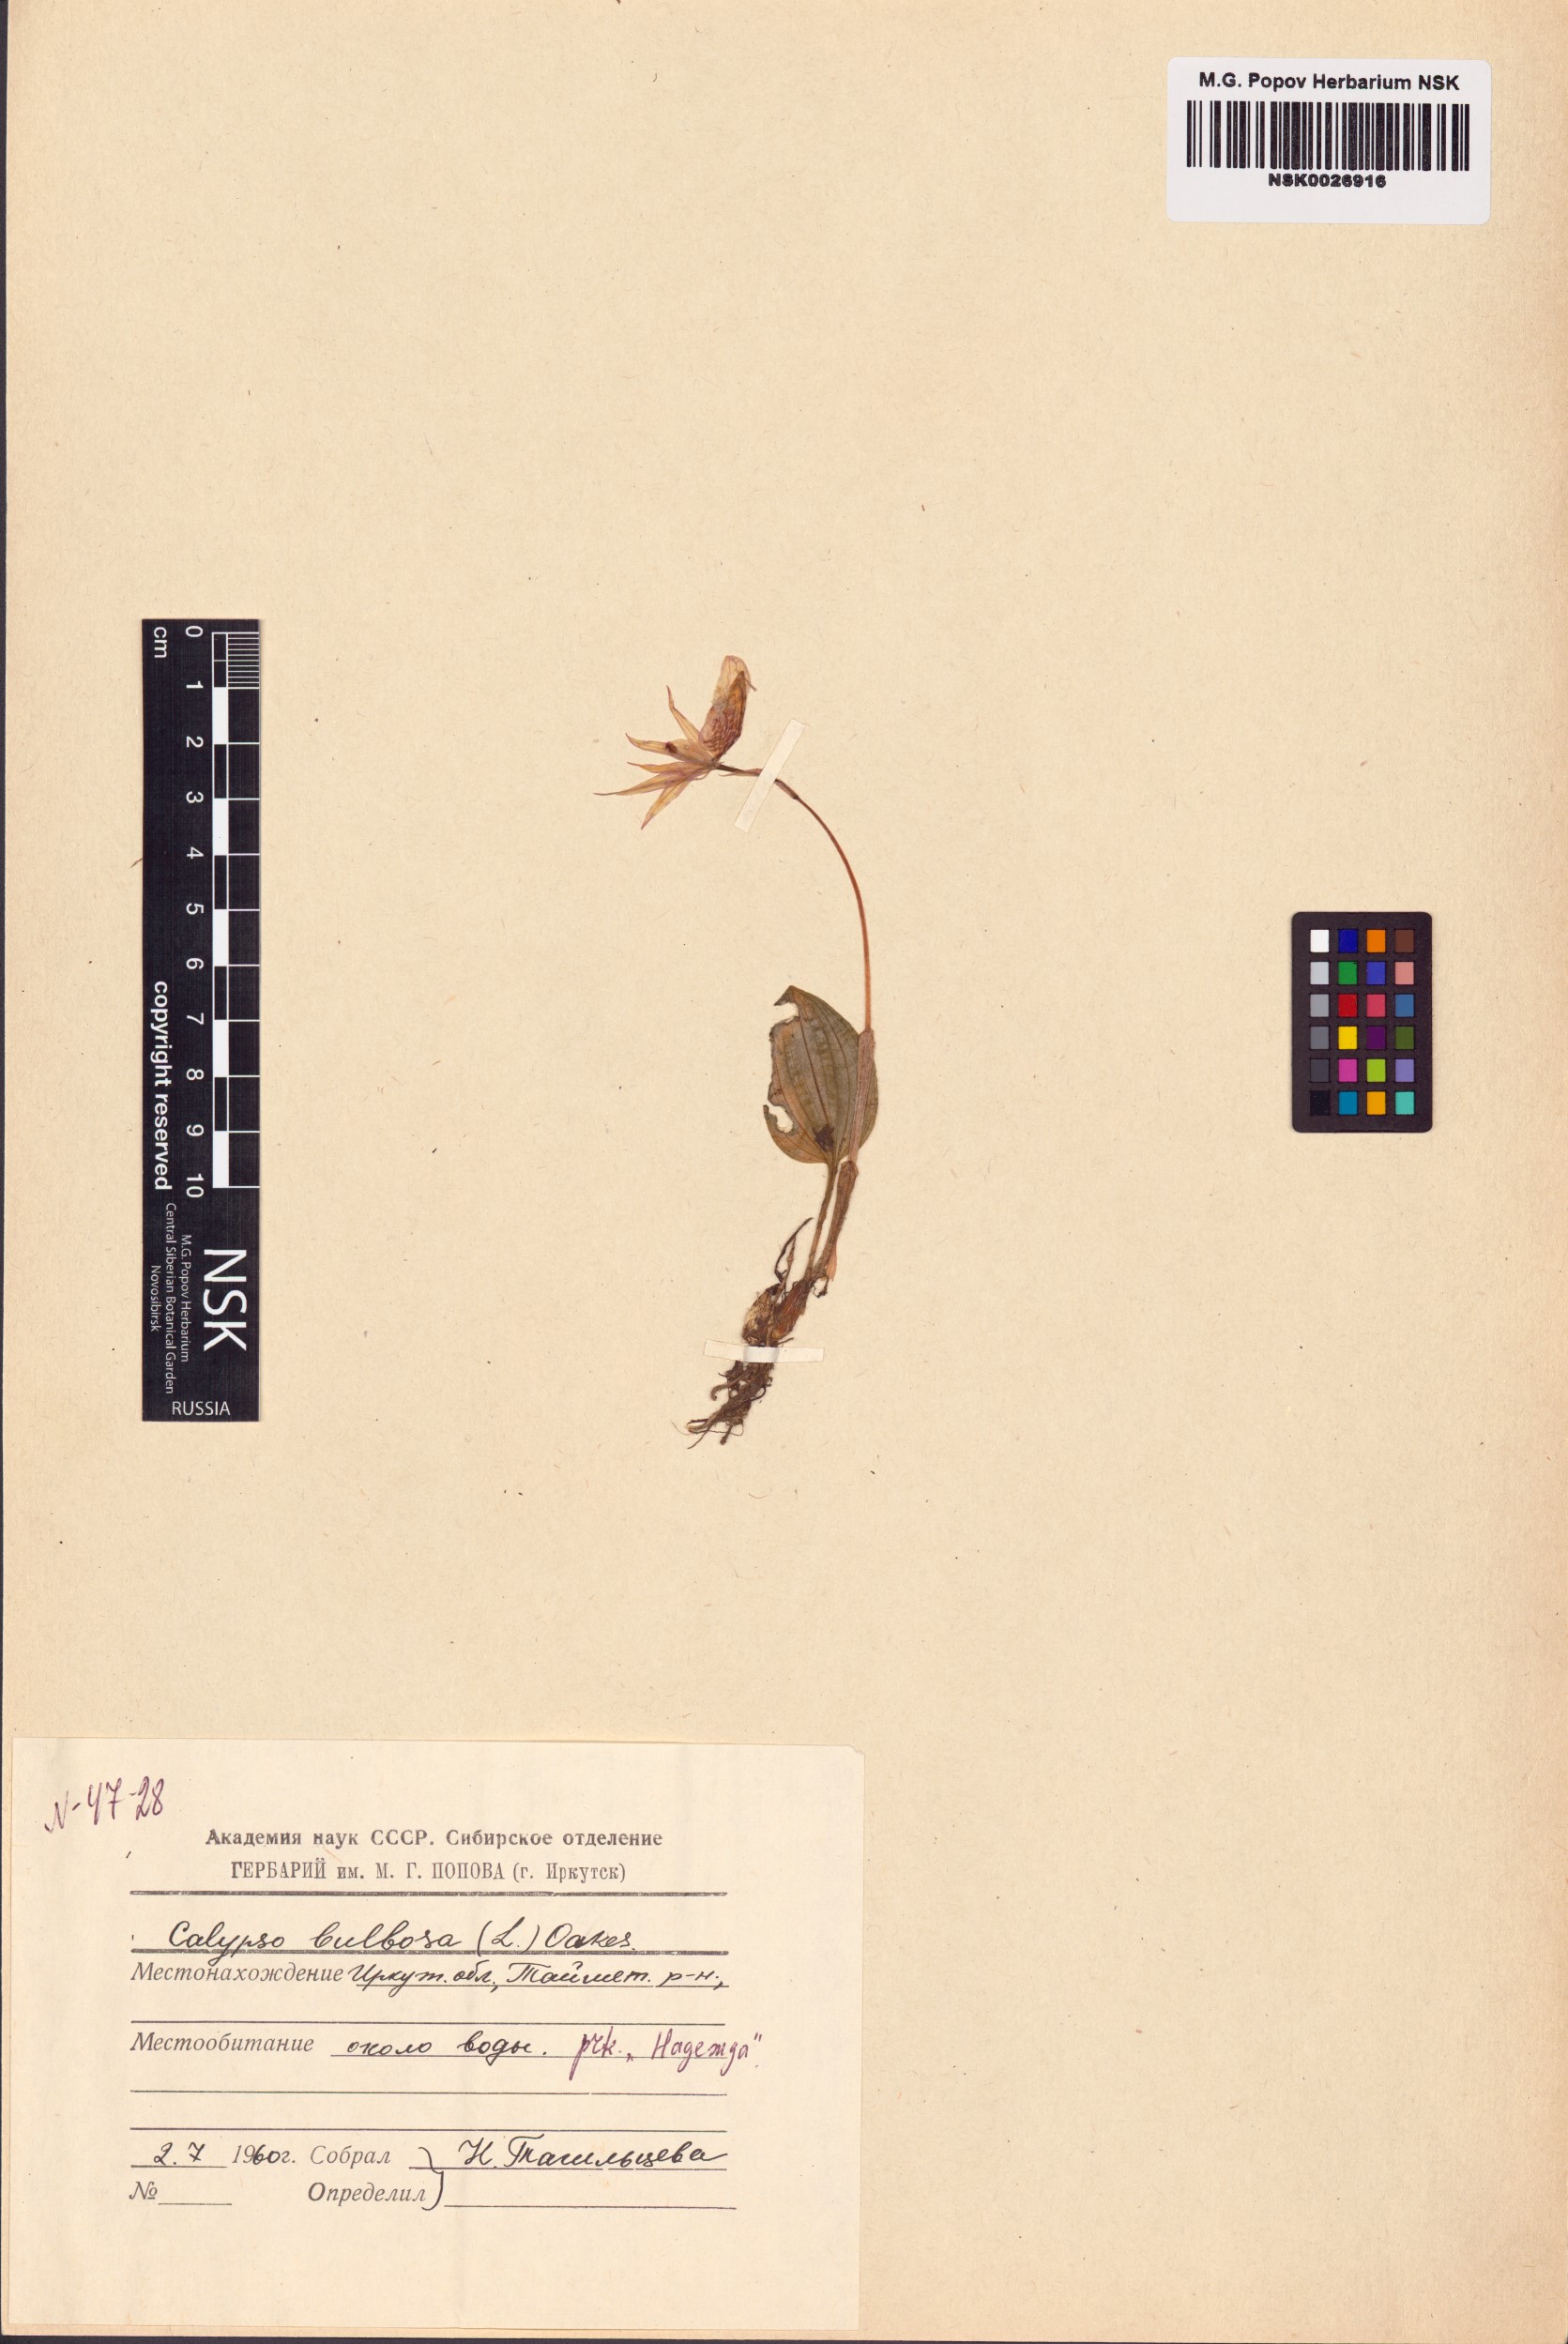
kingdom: Plantae
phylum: Tracheophyta
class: Liliopsida
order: Asparagales
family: Orchidaceae
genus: Calypso
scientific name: Calypso bulbosa
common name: Calypso
